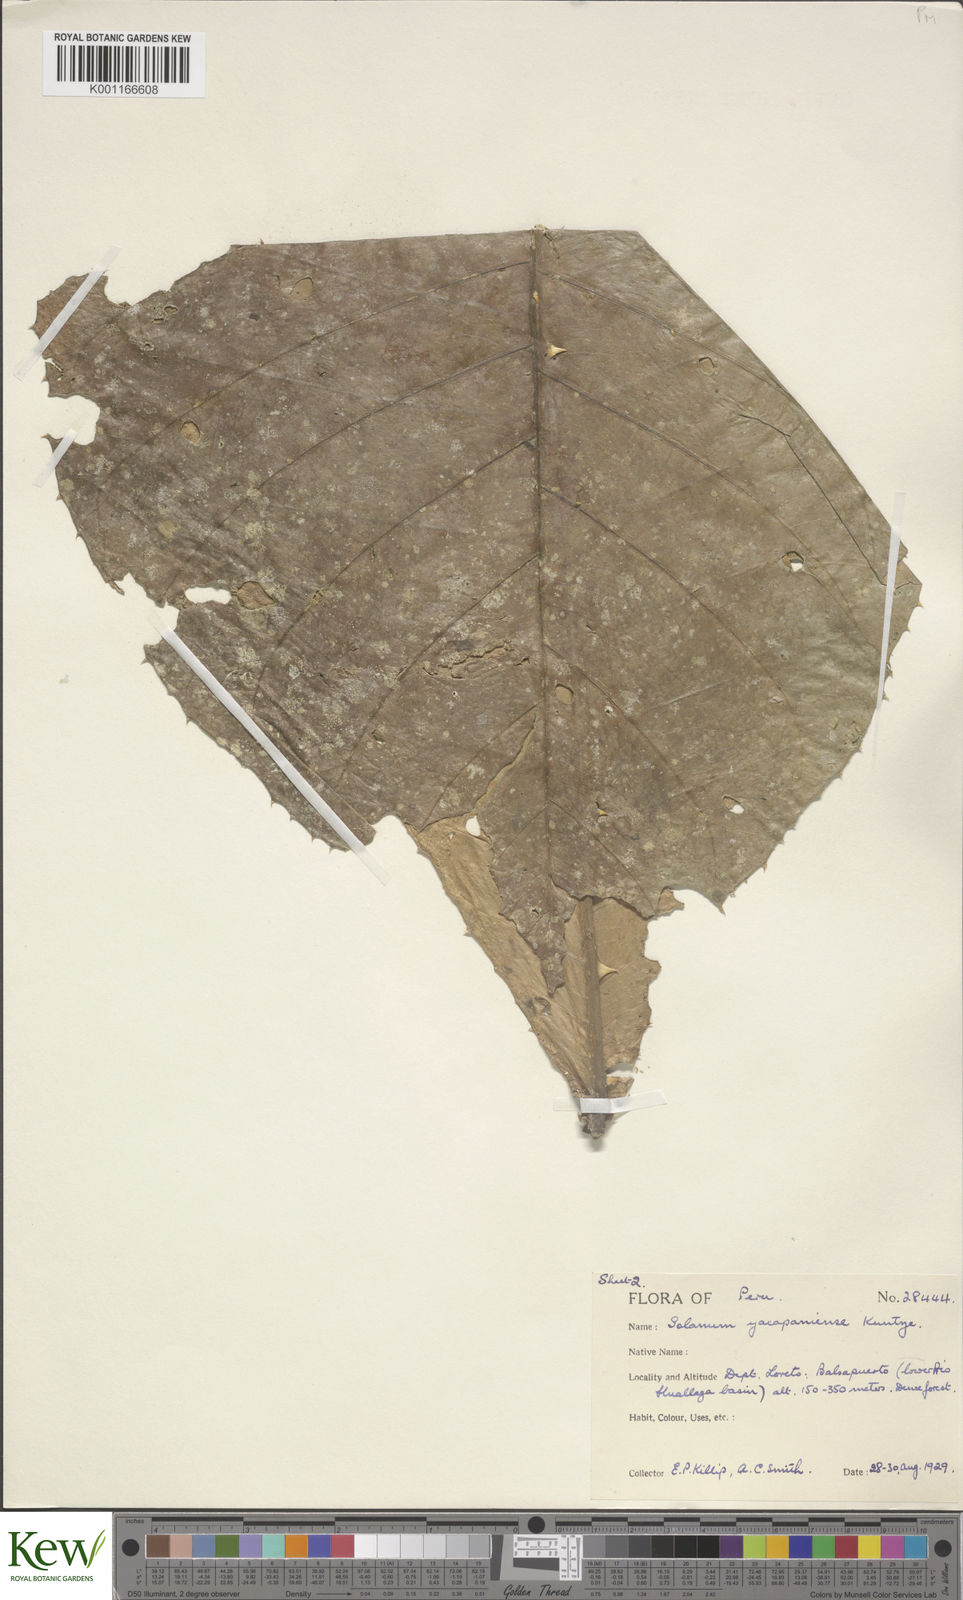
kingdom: Plantae
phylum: Tracheophyta
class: Magnoliopsida
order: Solanales
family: Solanaceae
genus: Solanum
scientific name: Solanum
